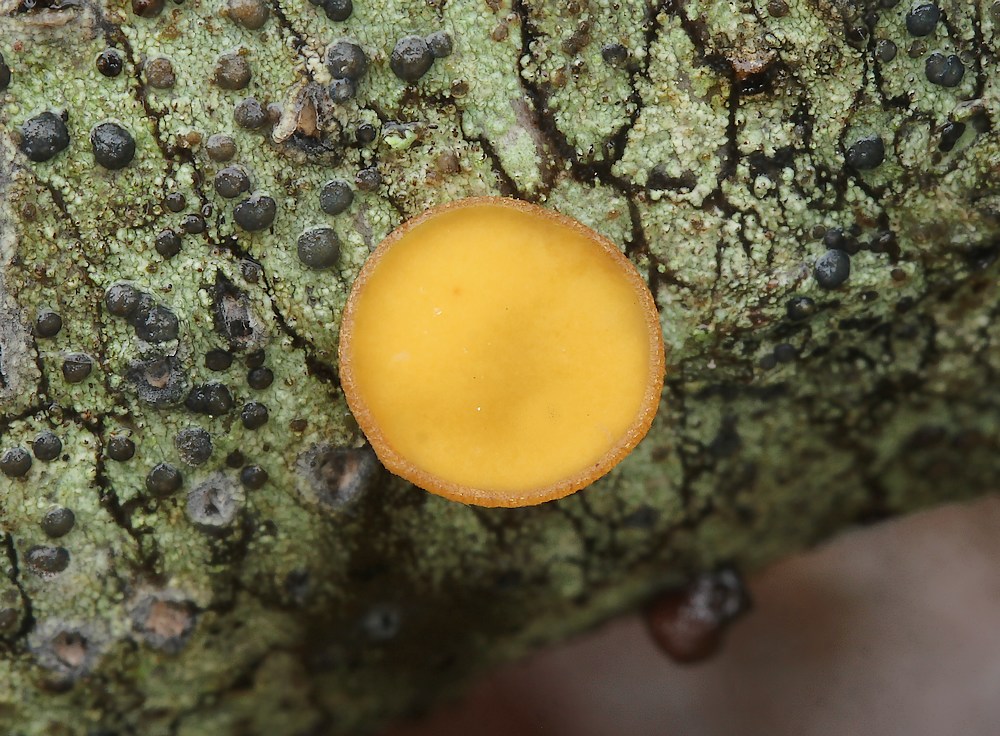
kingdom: Fungi
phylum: Ascomycota
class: Leotiomycetes
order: Helotiales
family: Rutstroemiaceae
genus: Rutstroemia
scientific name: Rutstroemia firma
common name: gren-brunskive
